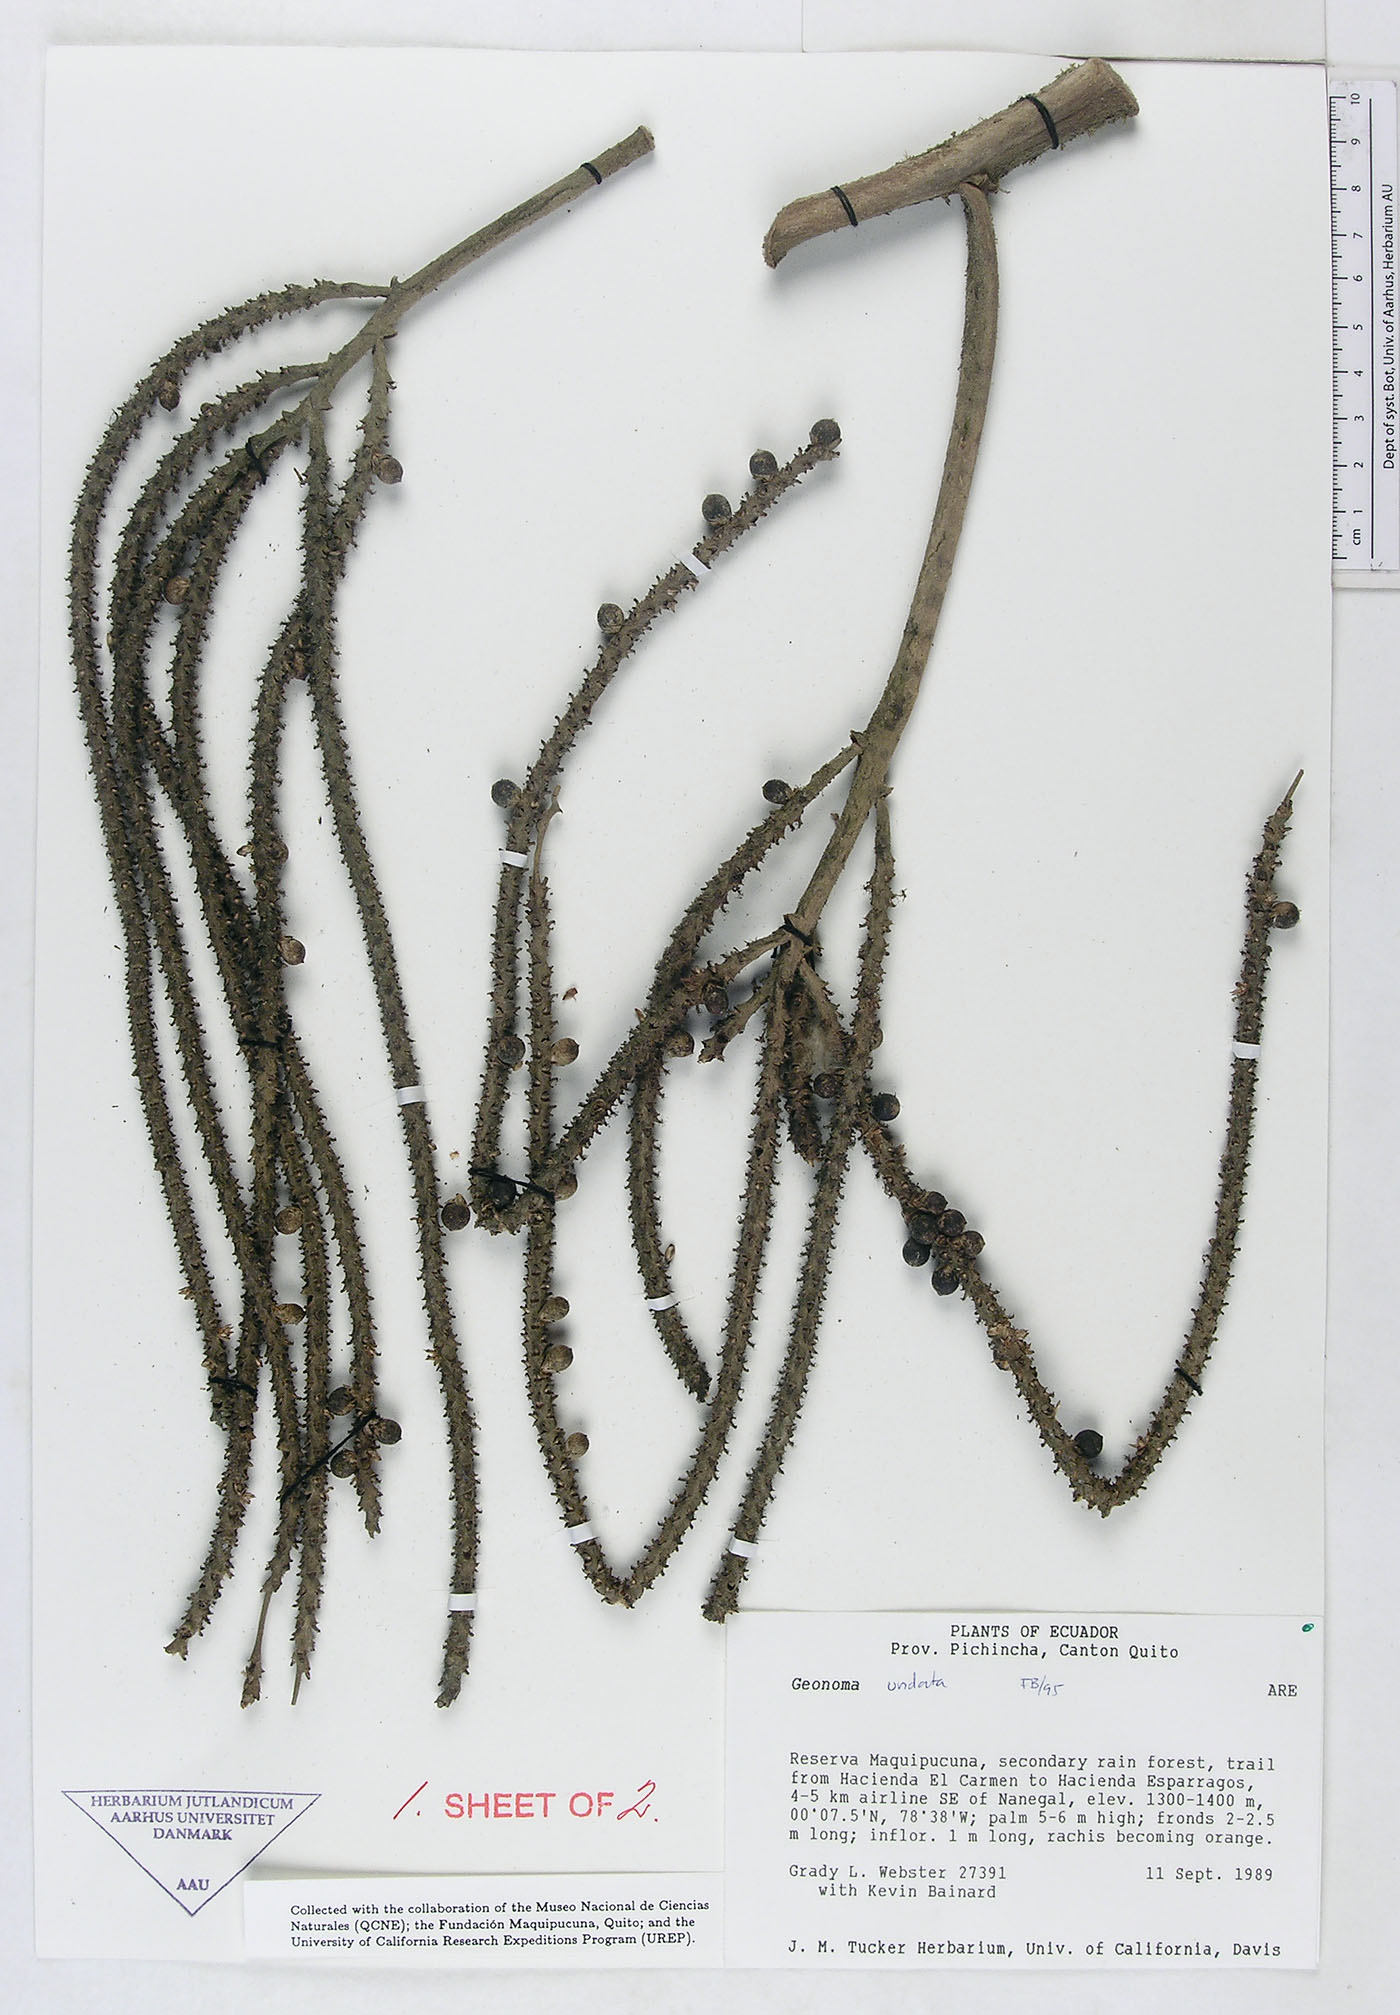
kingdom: Plantae
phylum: Tracheophyta
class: Liliopsida
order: Arecales
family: Arecaceae
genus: Geonoma
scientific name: Geonoma undata
